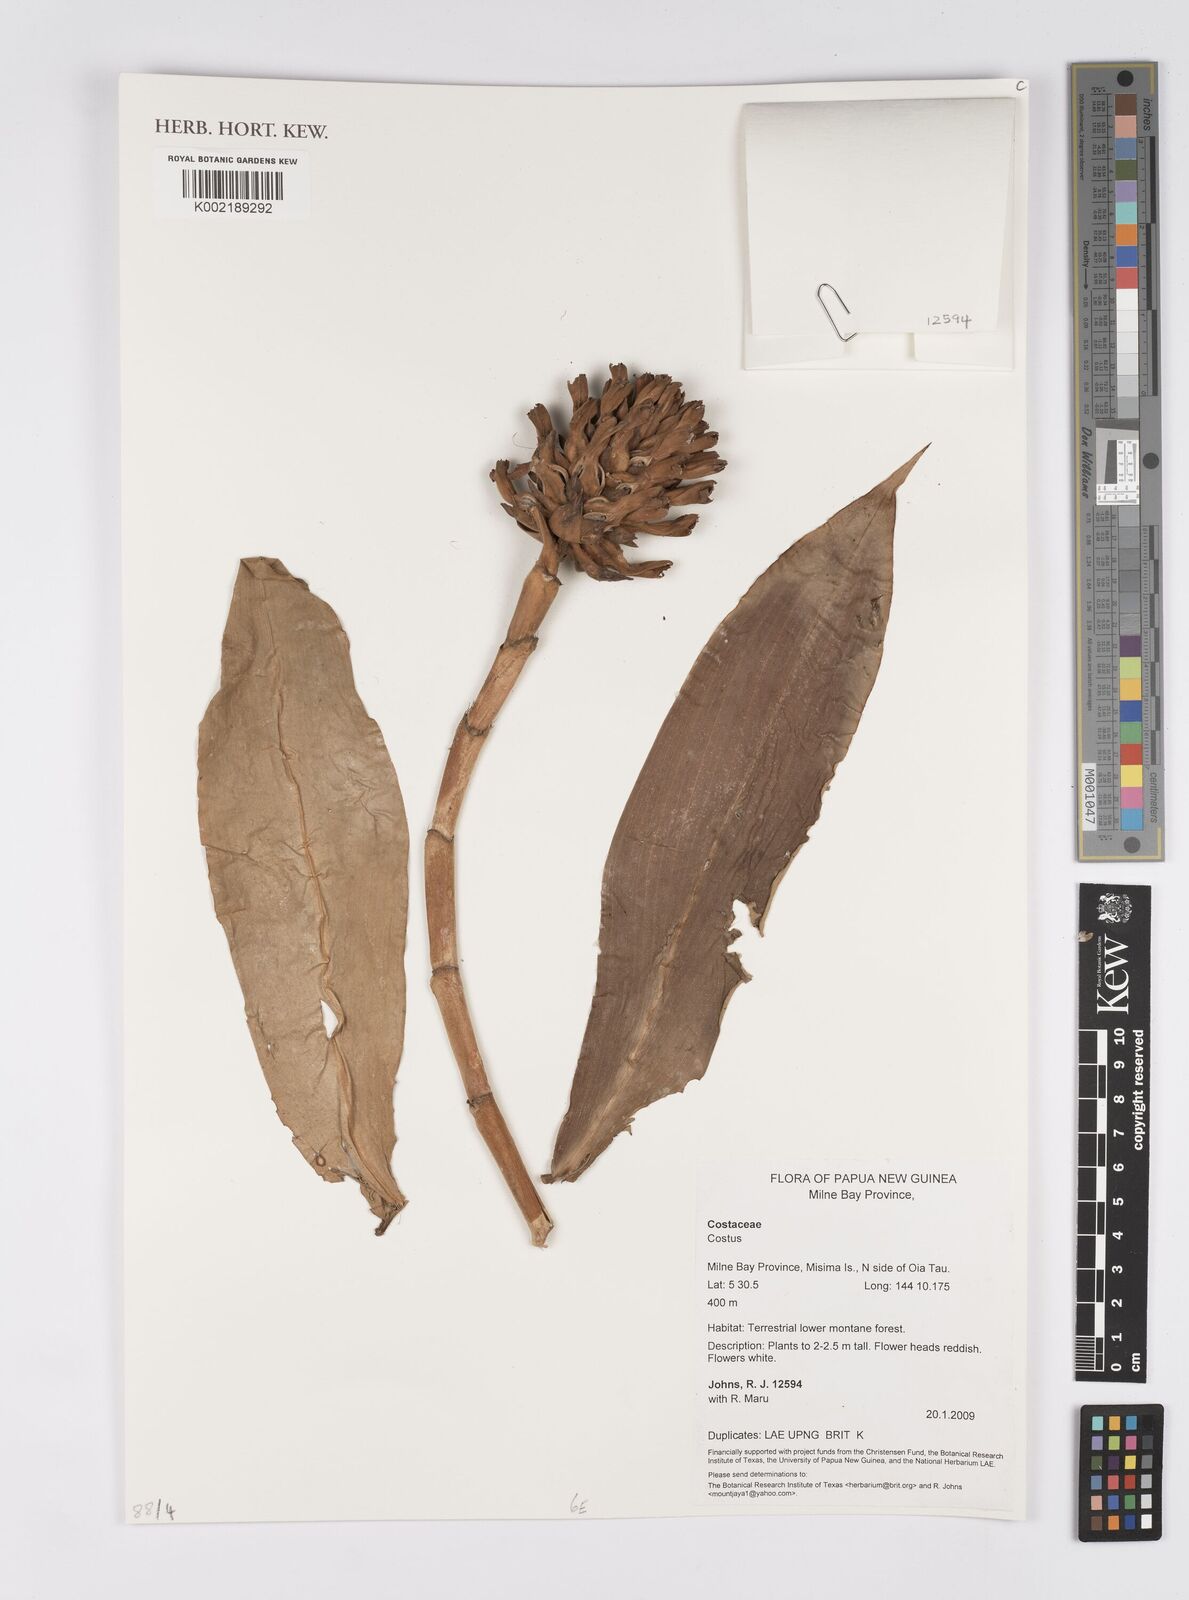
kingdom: Plantae
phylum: Tracheophyta
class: Liliopsida
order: Zingiberales
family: Costaceae
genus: Costus
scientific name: Costus
